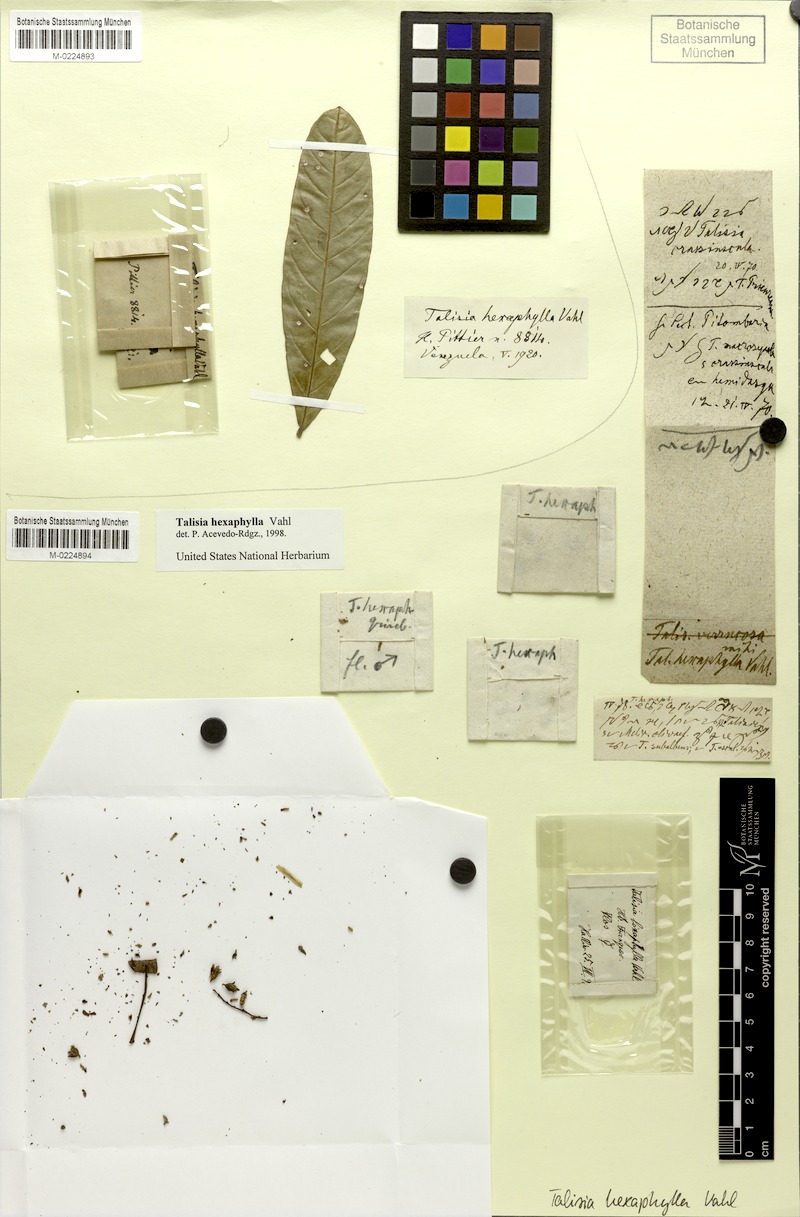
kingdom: Plantae
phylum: Tracheophyta
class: Magnoliopsida
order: Sapindales
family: Sapindaceae
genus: Talisia
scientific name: Talisia hexaphylla
